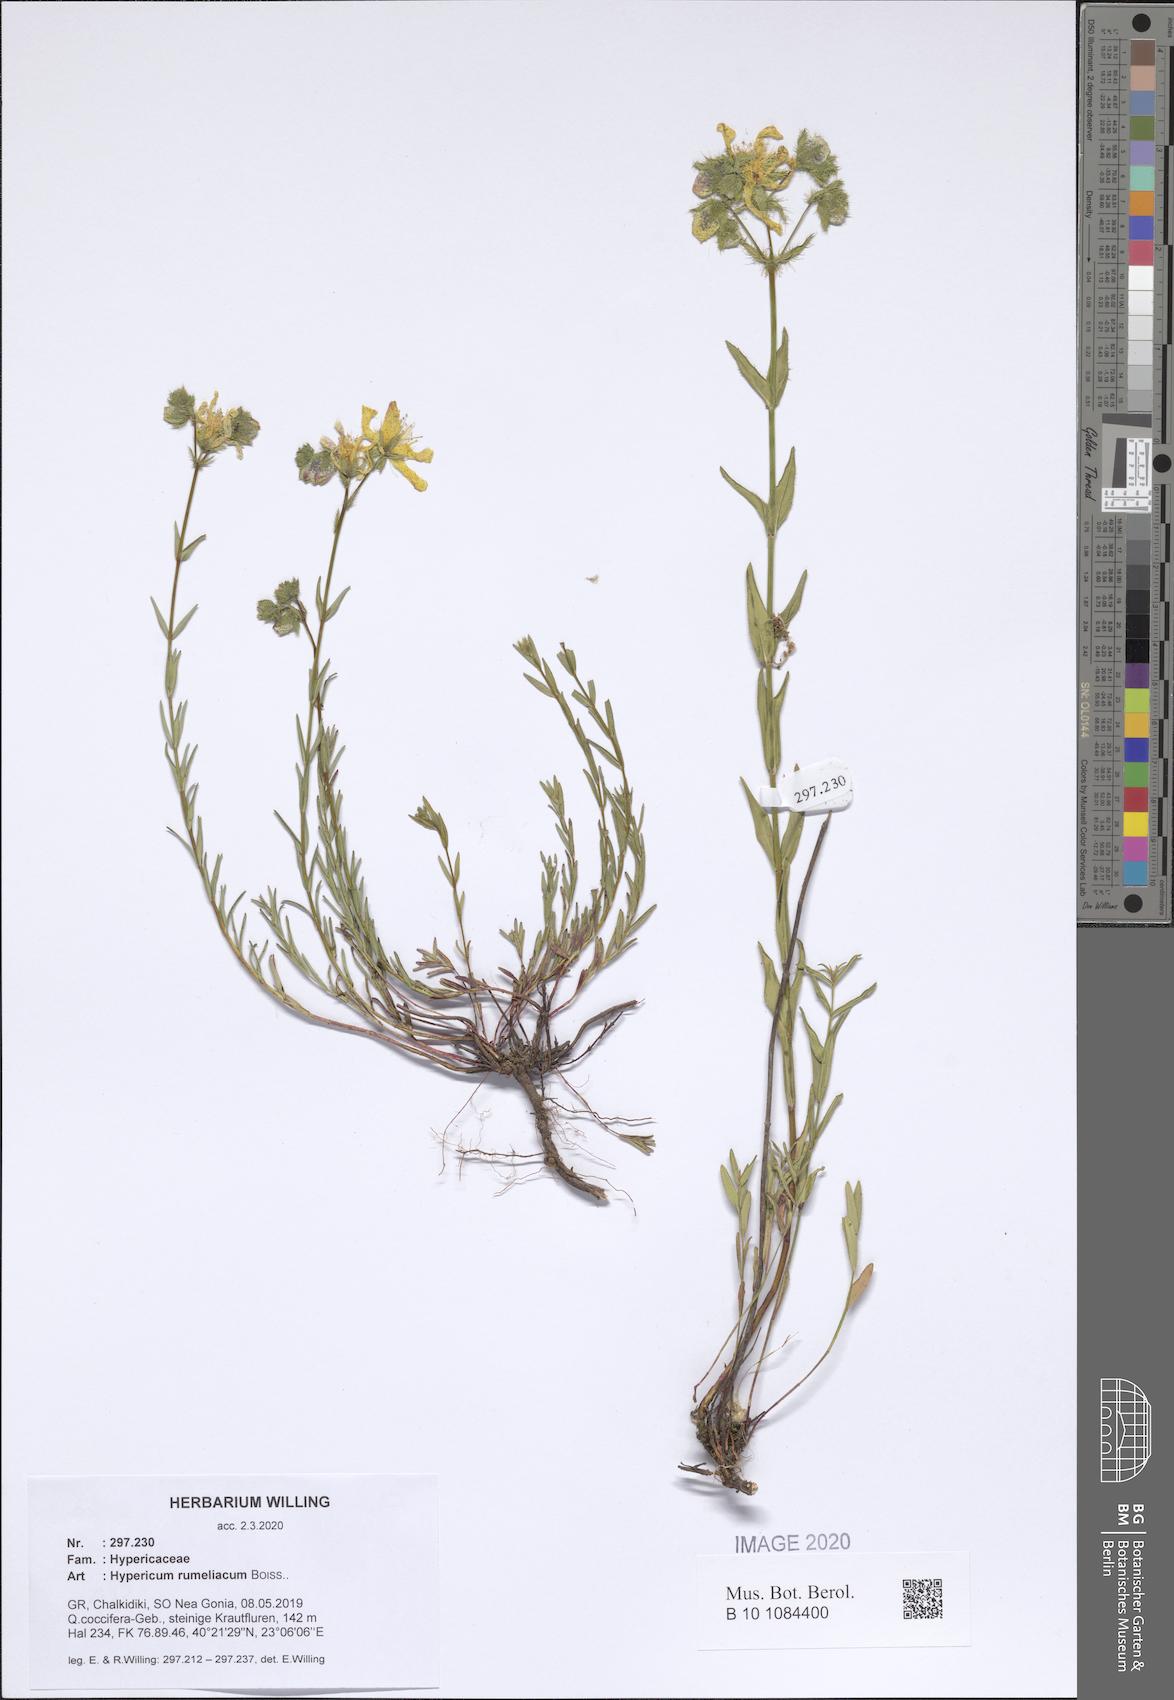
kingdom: Plantae
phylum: Tracheophyta
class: Magnoliopsida
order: Malpighiales
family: Hypericaceae
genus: Hypericum
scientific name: Hypericum rumeliacum
